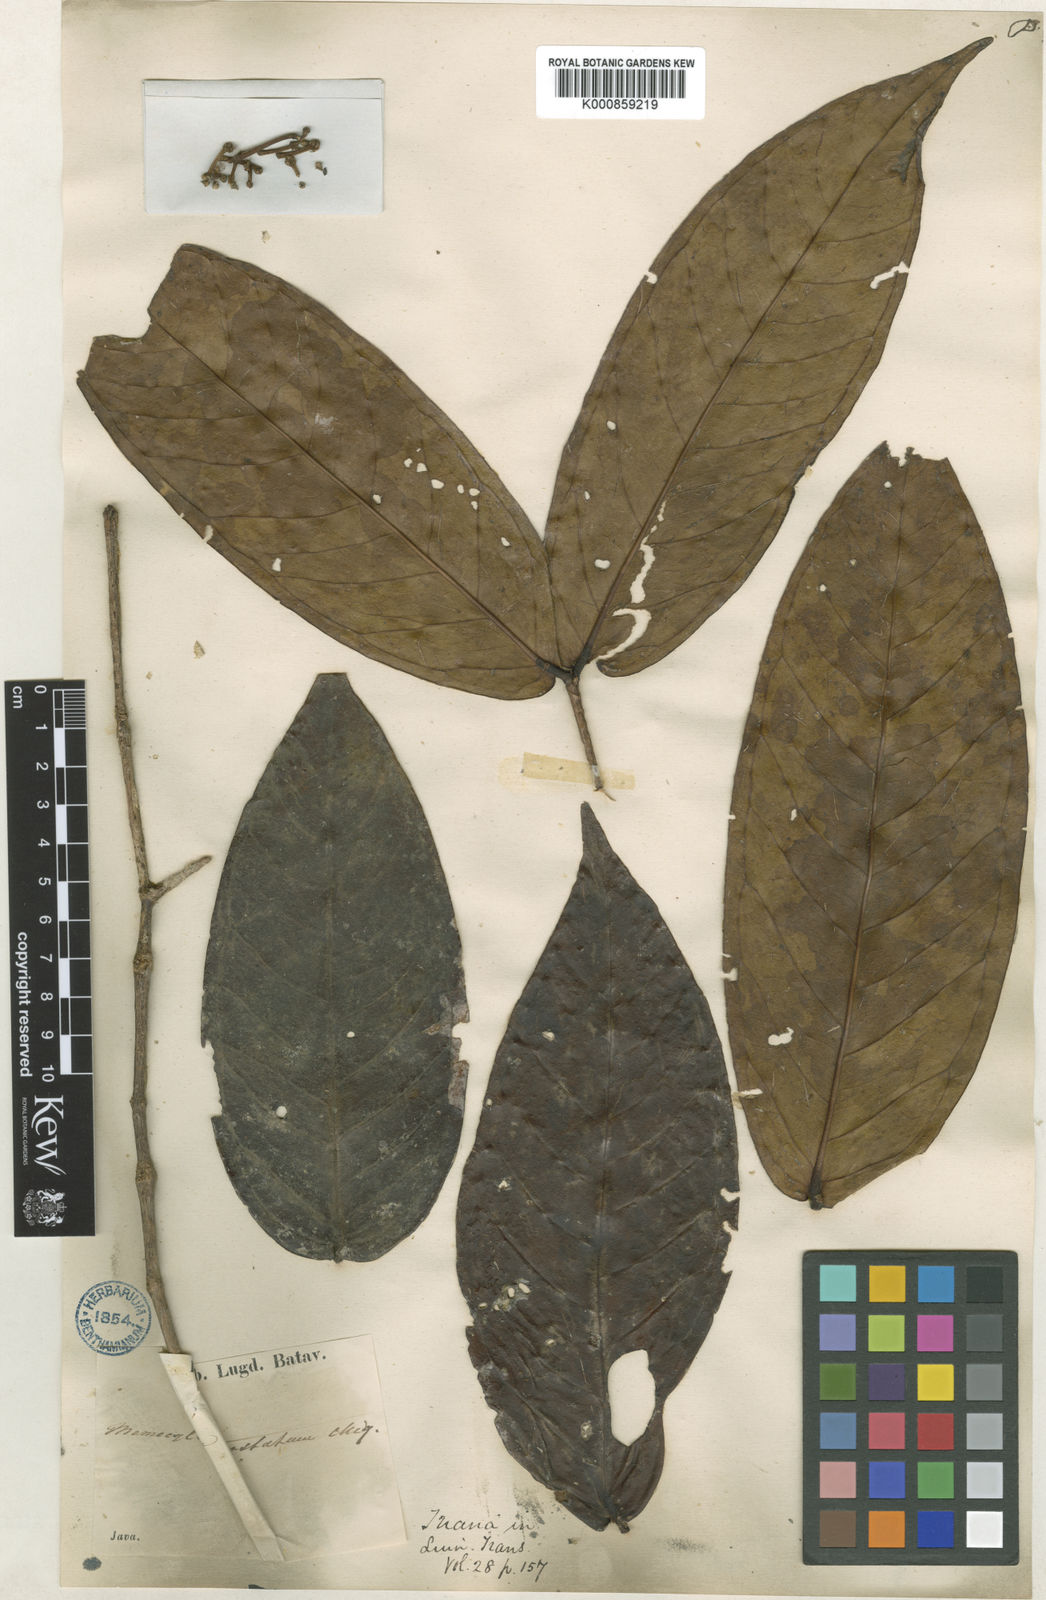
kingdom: Plantae
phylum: Tracheophyta
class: Magnoliopsida
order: Myrtales
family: Melastomataceae
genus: Memecylon
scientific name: Memecylon paniculatum
